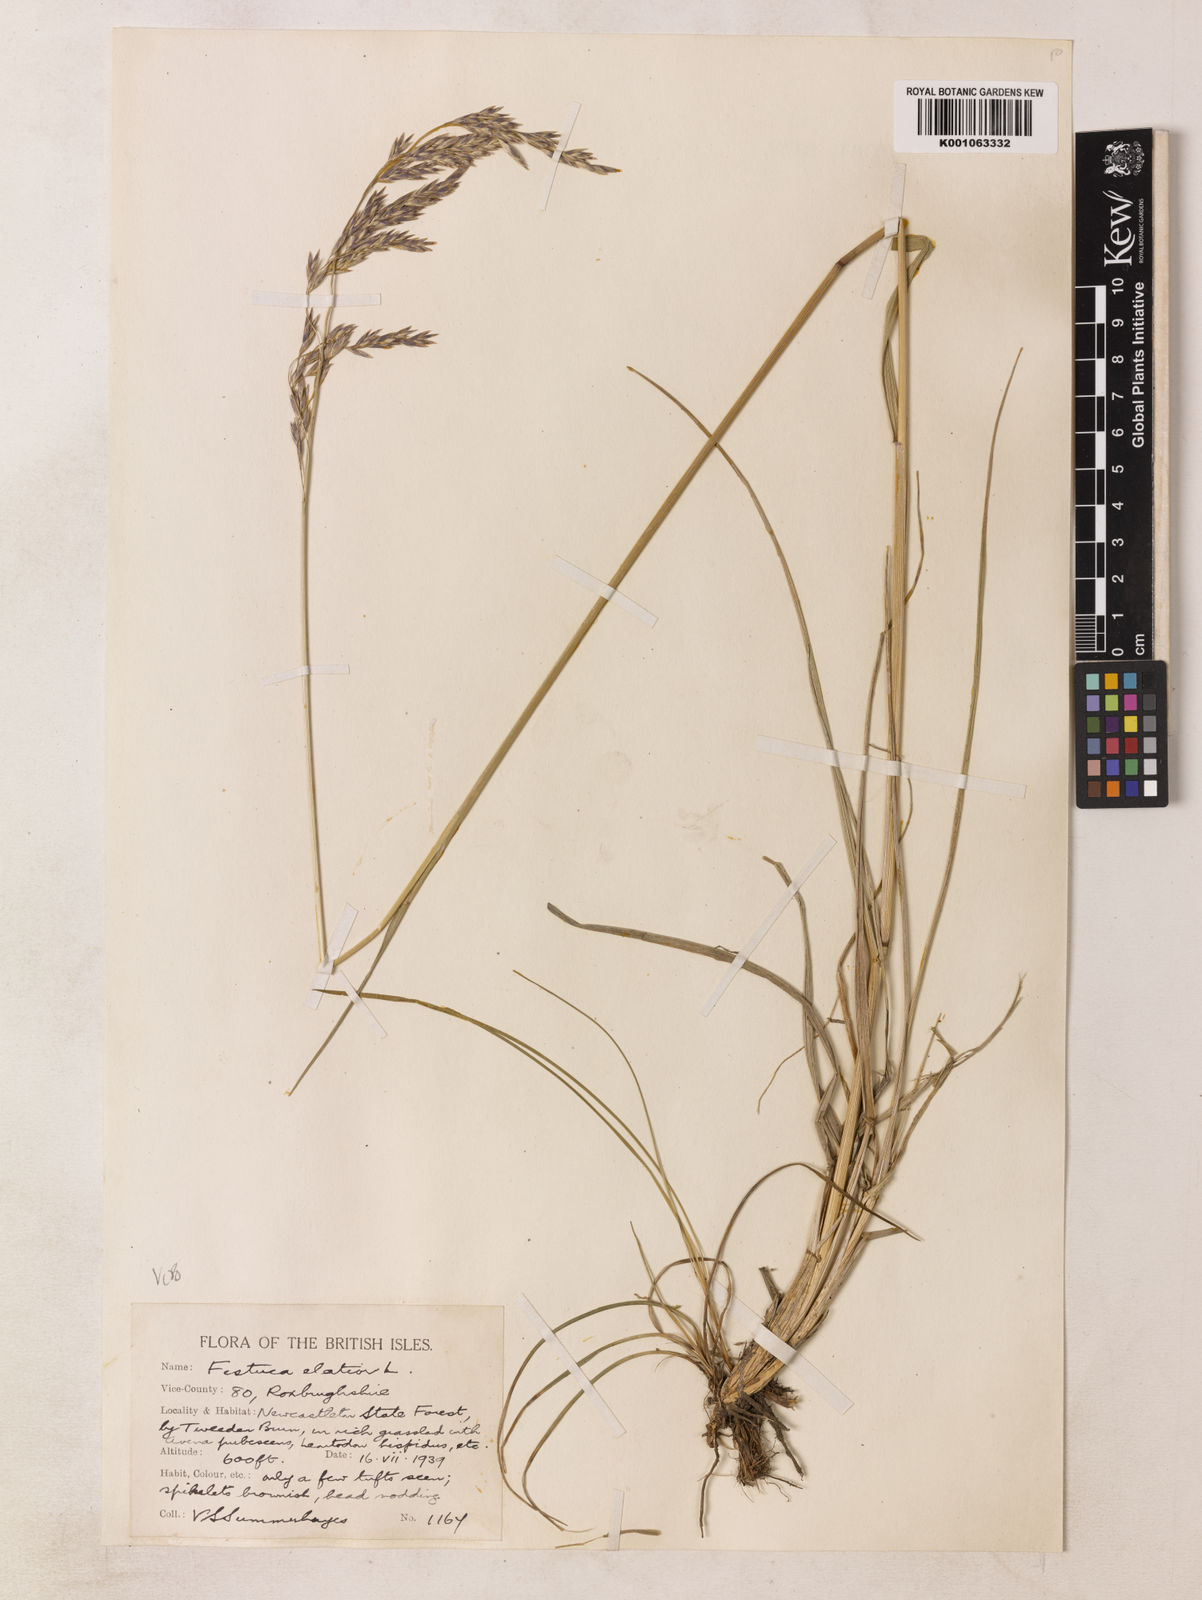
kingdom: Plantae
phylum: Tracheophyta
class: Magnoliopsida
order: Fabales
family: Fabaceae
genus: Centrosema
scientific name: Centrosema
